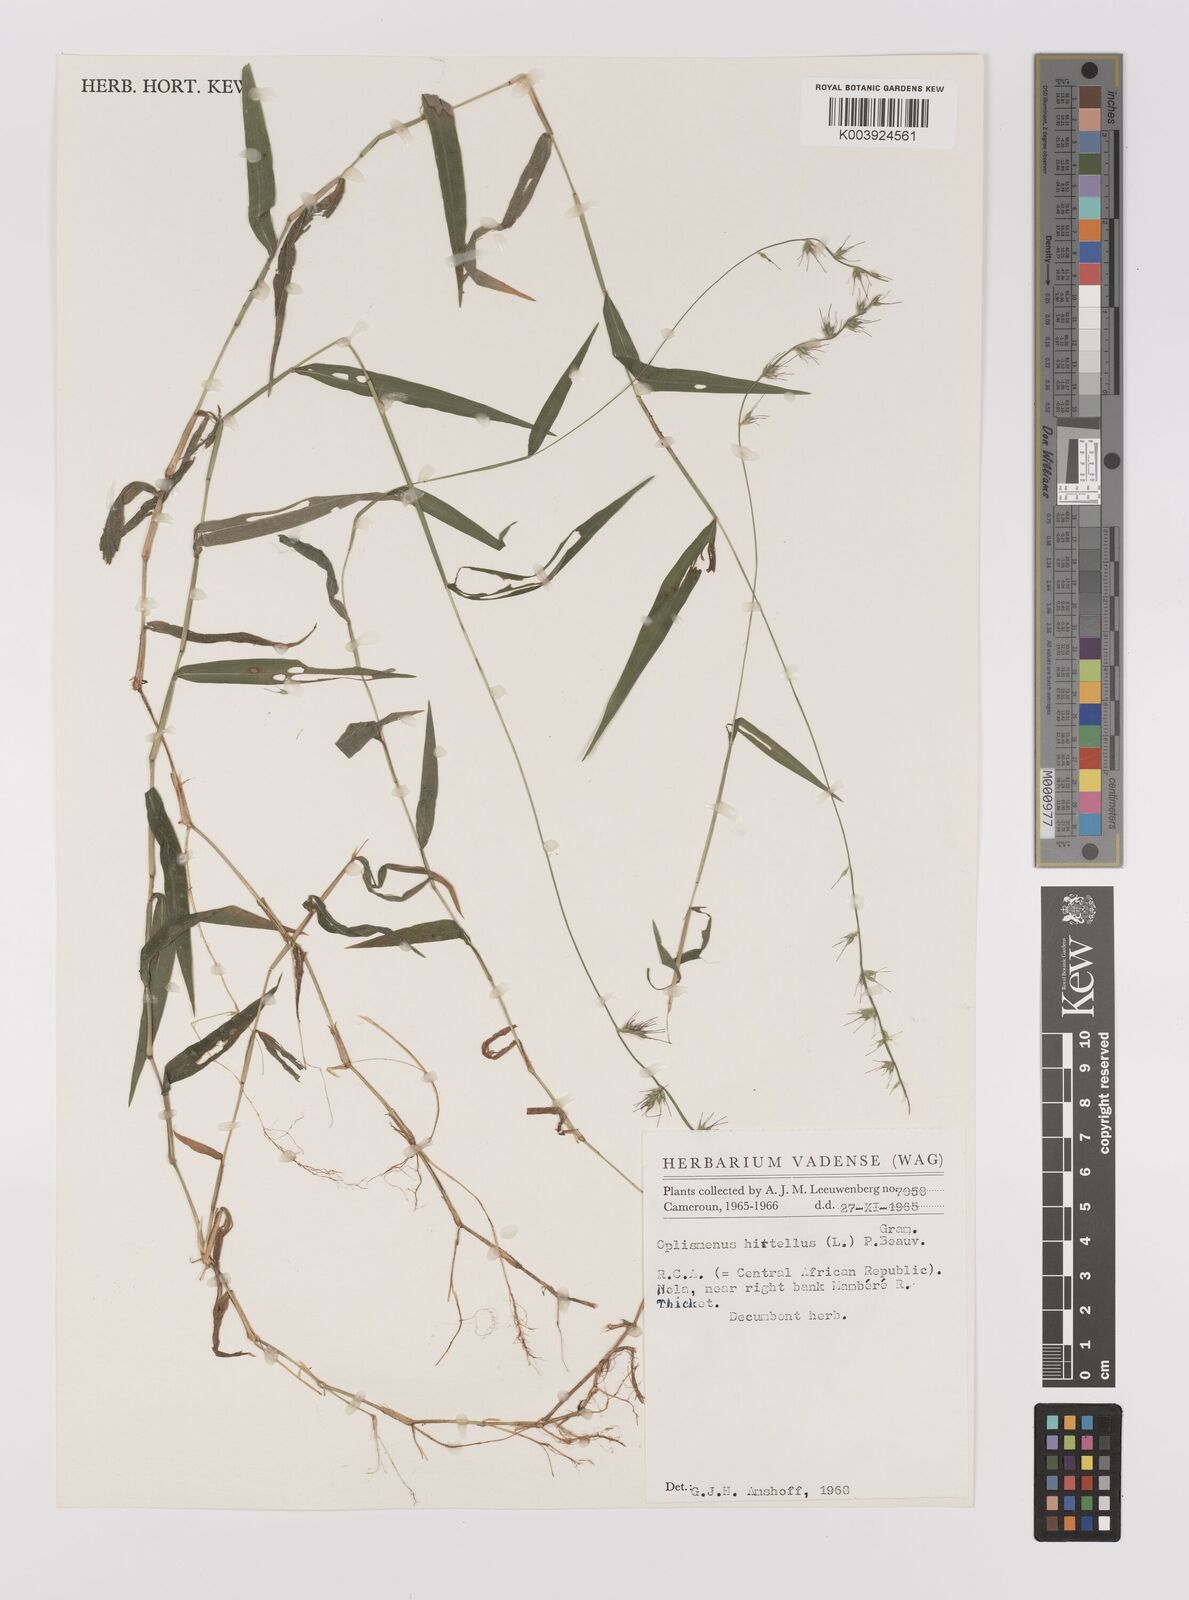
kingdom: Plantae
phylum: Tracheophyta
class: Liliopsida
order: Poales
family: Poaceae
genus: Oplismenus
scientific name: Oplismenus hirtellus
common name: Basketgrass
